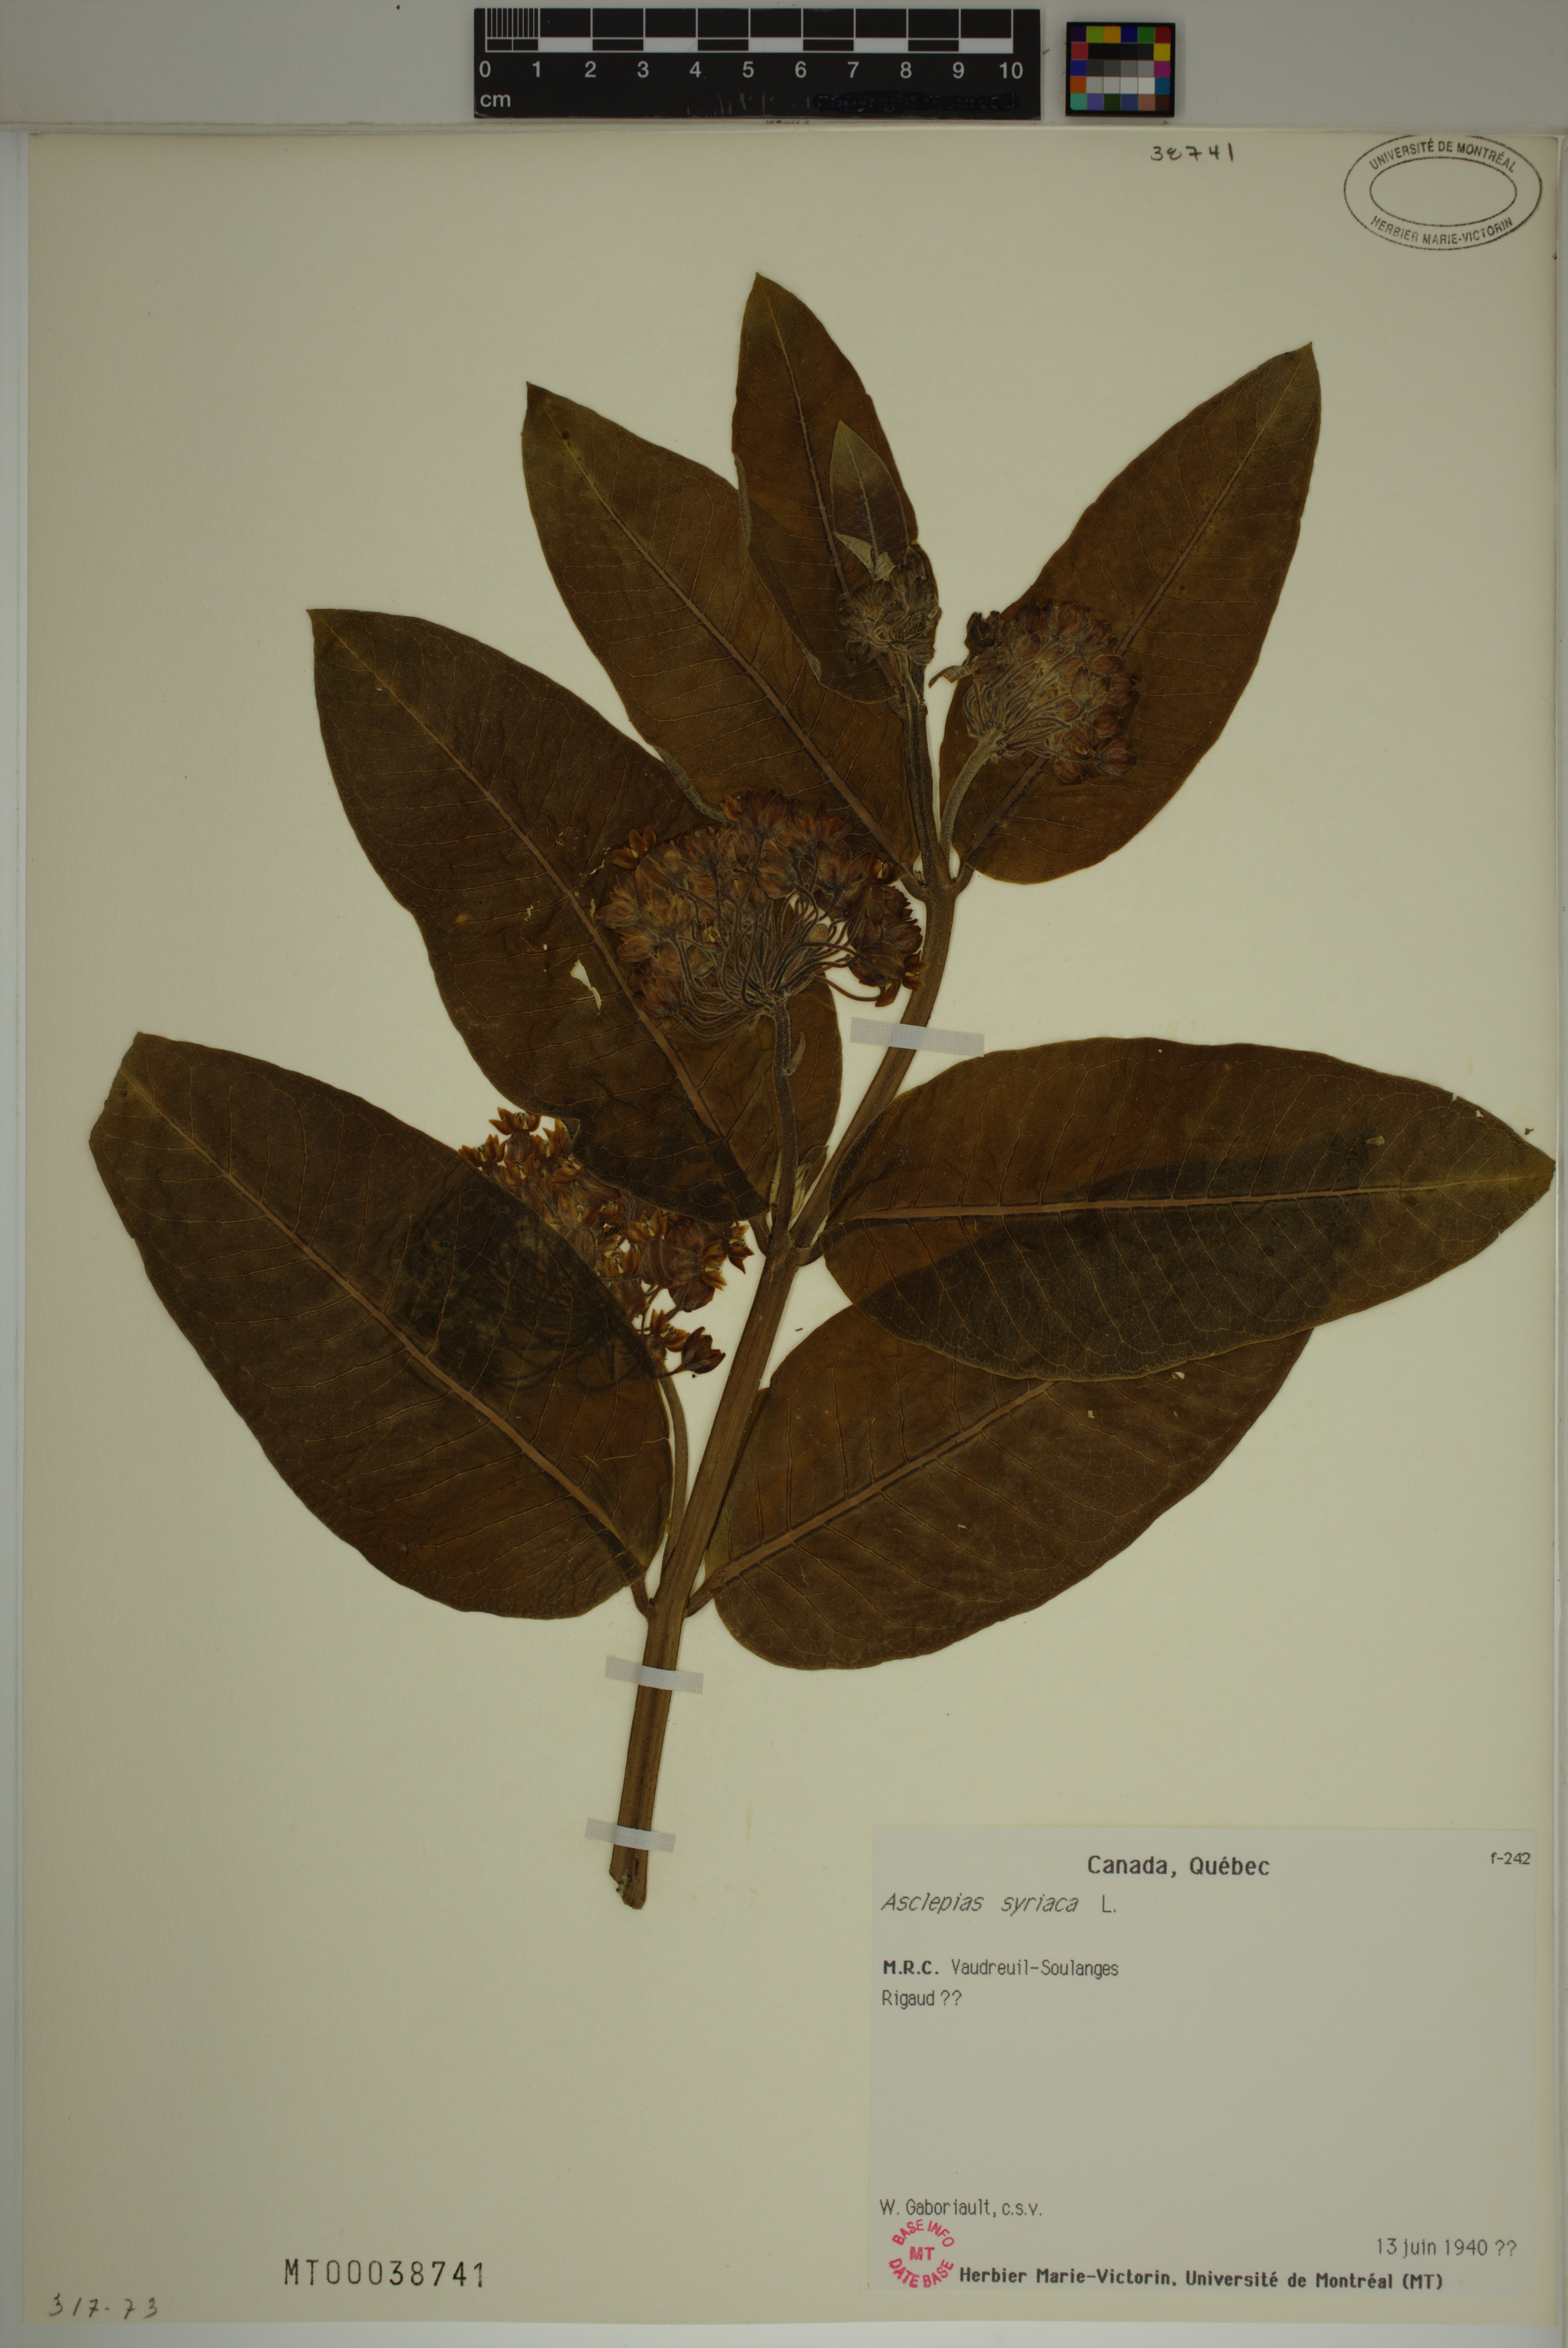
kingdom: Plantae
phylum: Tracheophyta
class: Magnoliopsida
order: Gentianales
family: Apocynaceae
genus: Asclepias
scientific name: Asclepias syriaca
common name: Common milkweed
